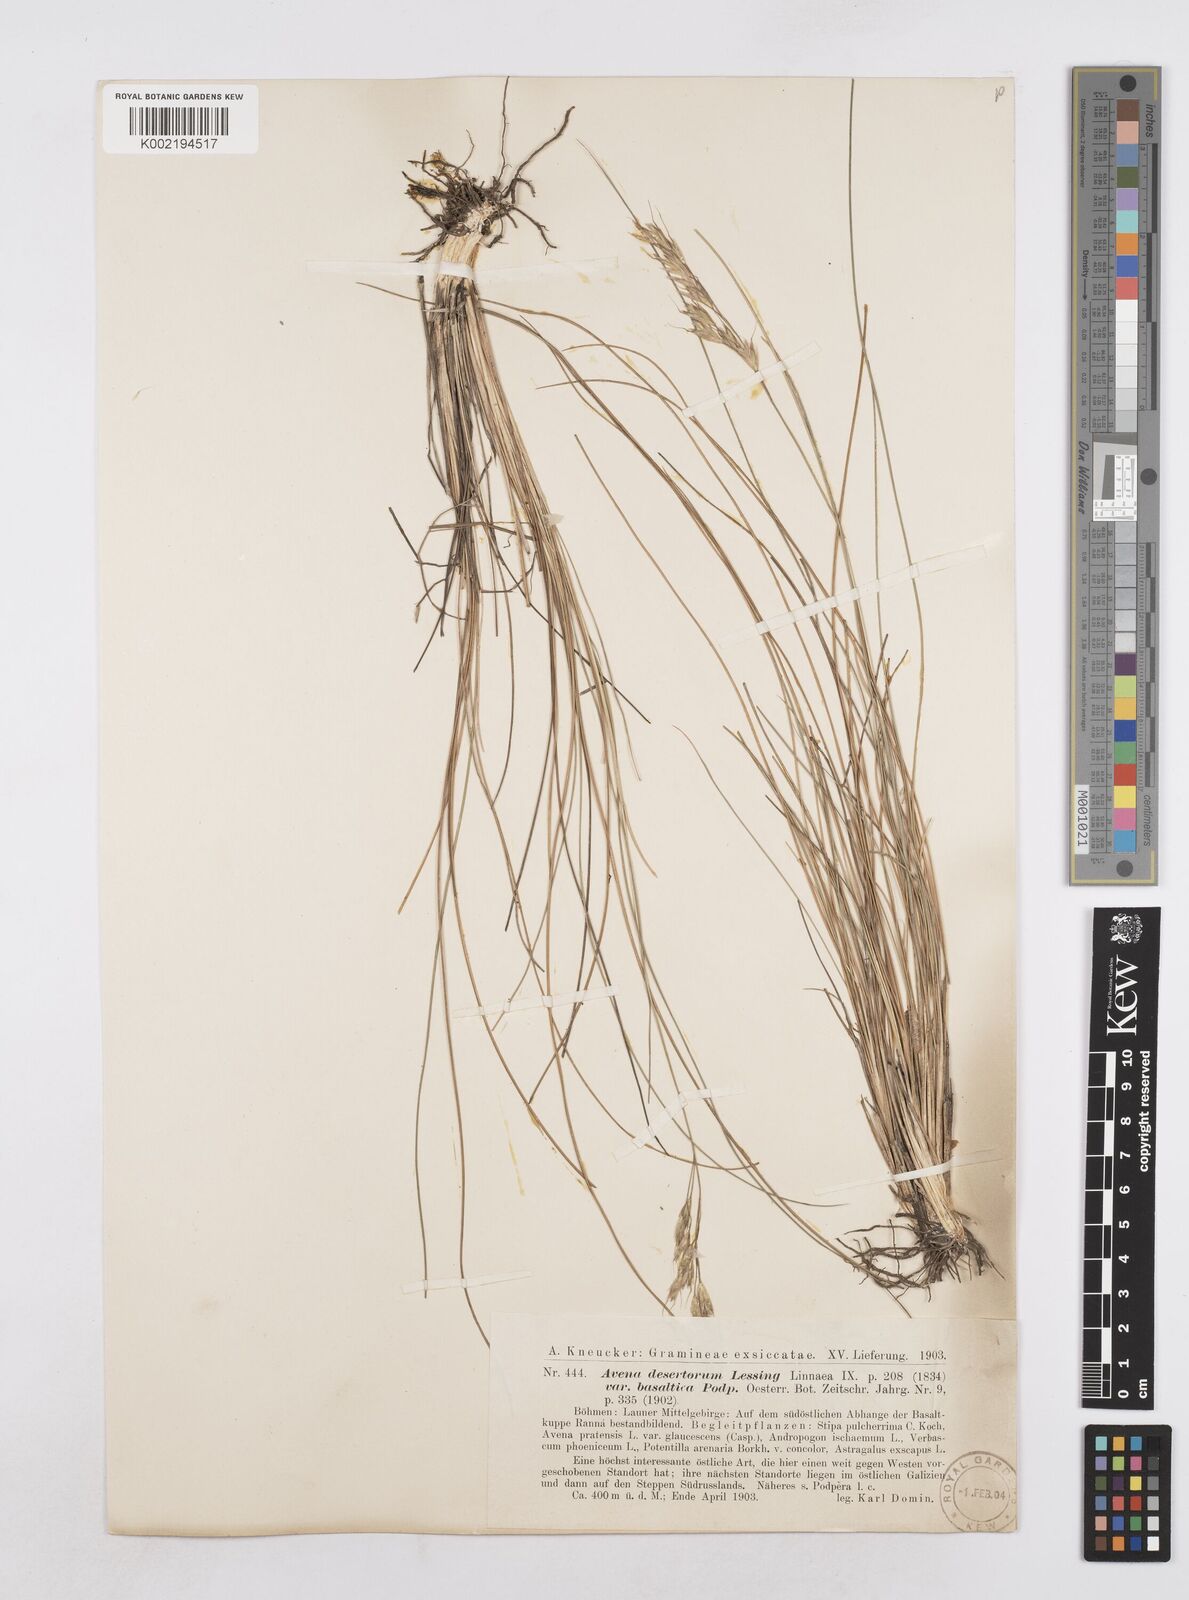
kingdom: Plantae
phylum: Tracheophyta
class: Liliopsida
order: Poales
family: Poaceae
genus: Helictotrichon
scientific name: Helictotrichon desertorum
